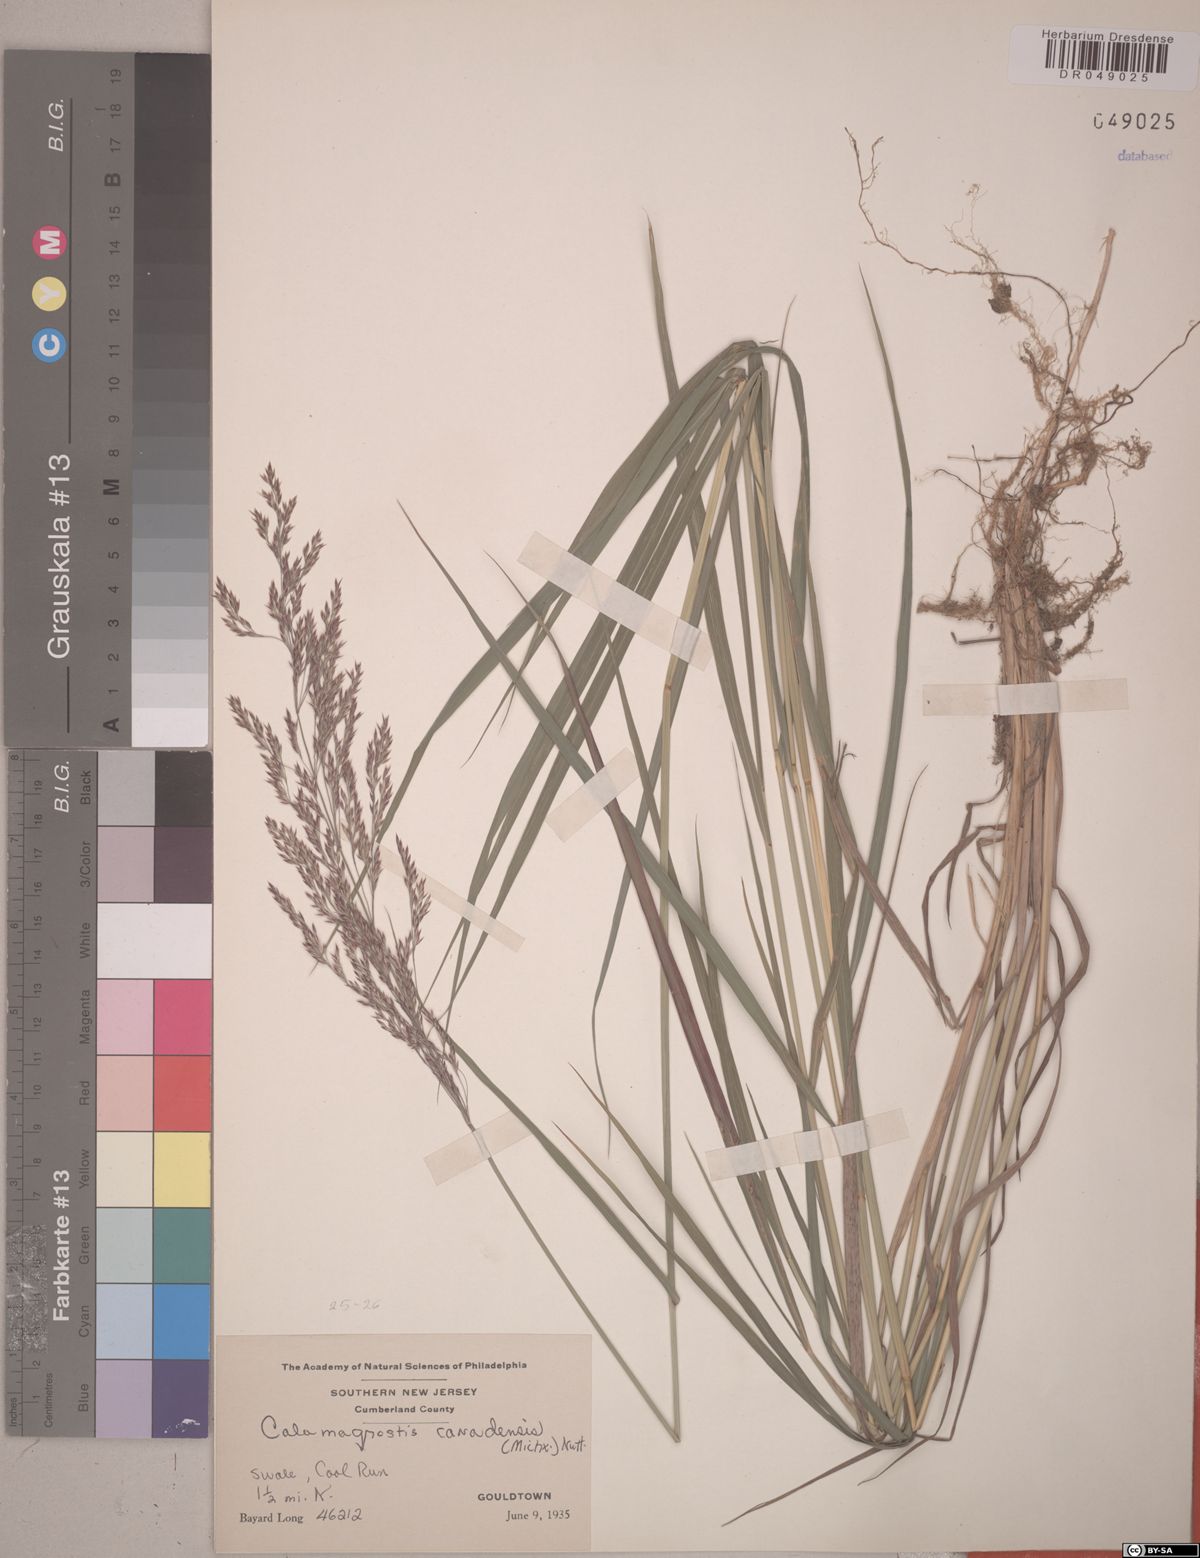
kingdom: Plantae
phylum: Tracheophyta
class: Liliopsida
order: Poales
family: Poaceae
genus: Calamagrostis
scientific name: Calamagrostis canadensis
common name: Canada bluejoint
